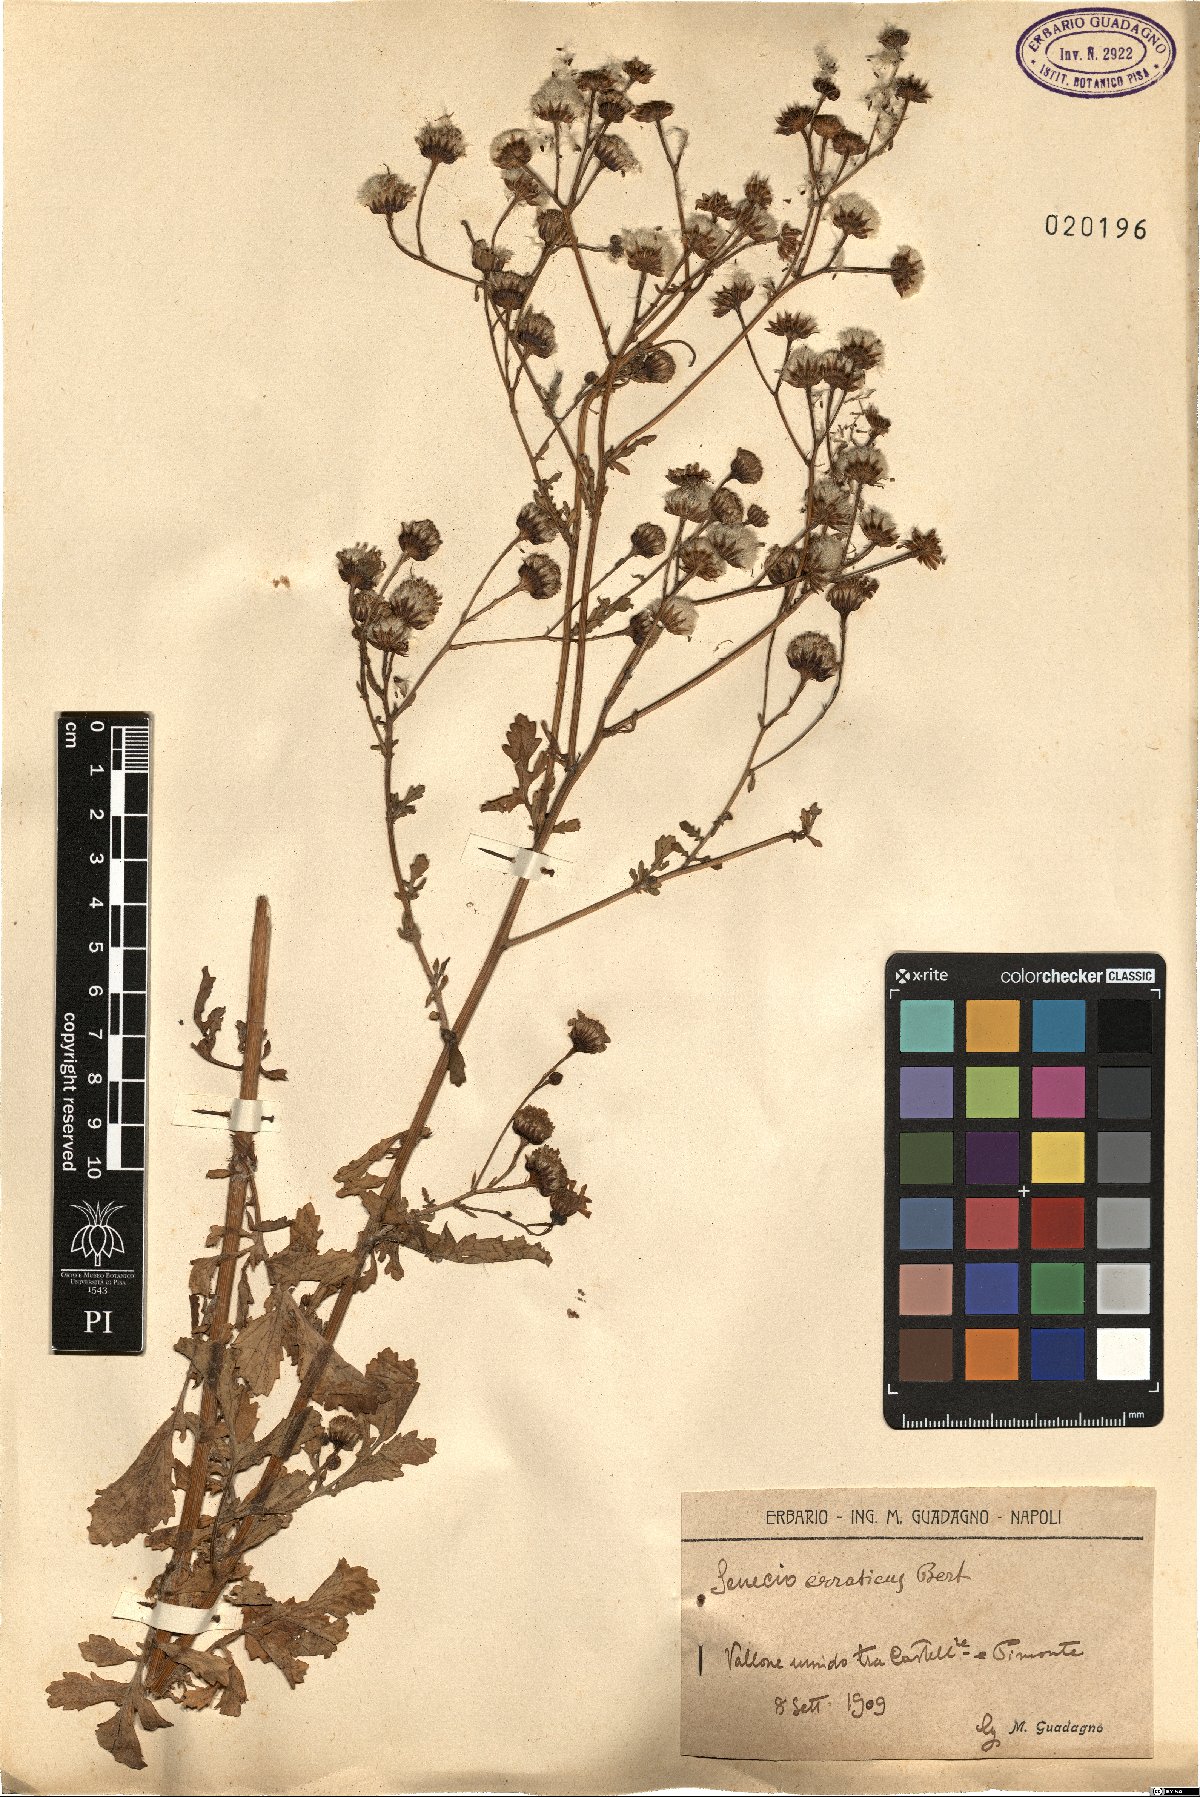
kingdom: Plantae
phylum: Tracheophyta
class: Magnoliopsida
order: Asterales
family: Asteraceae
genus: Jacobaea
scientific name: Jacobaea erratica
